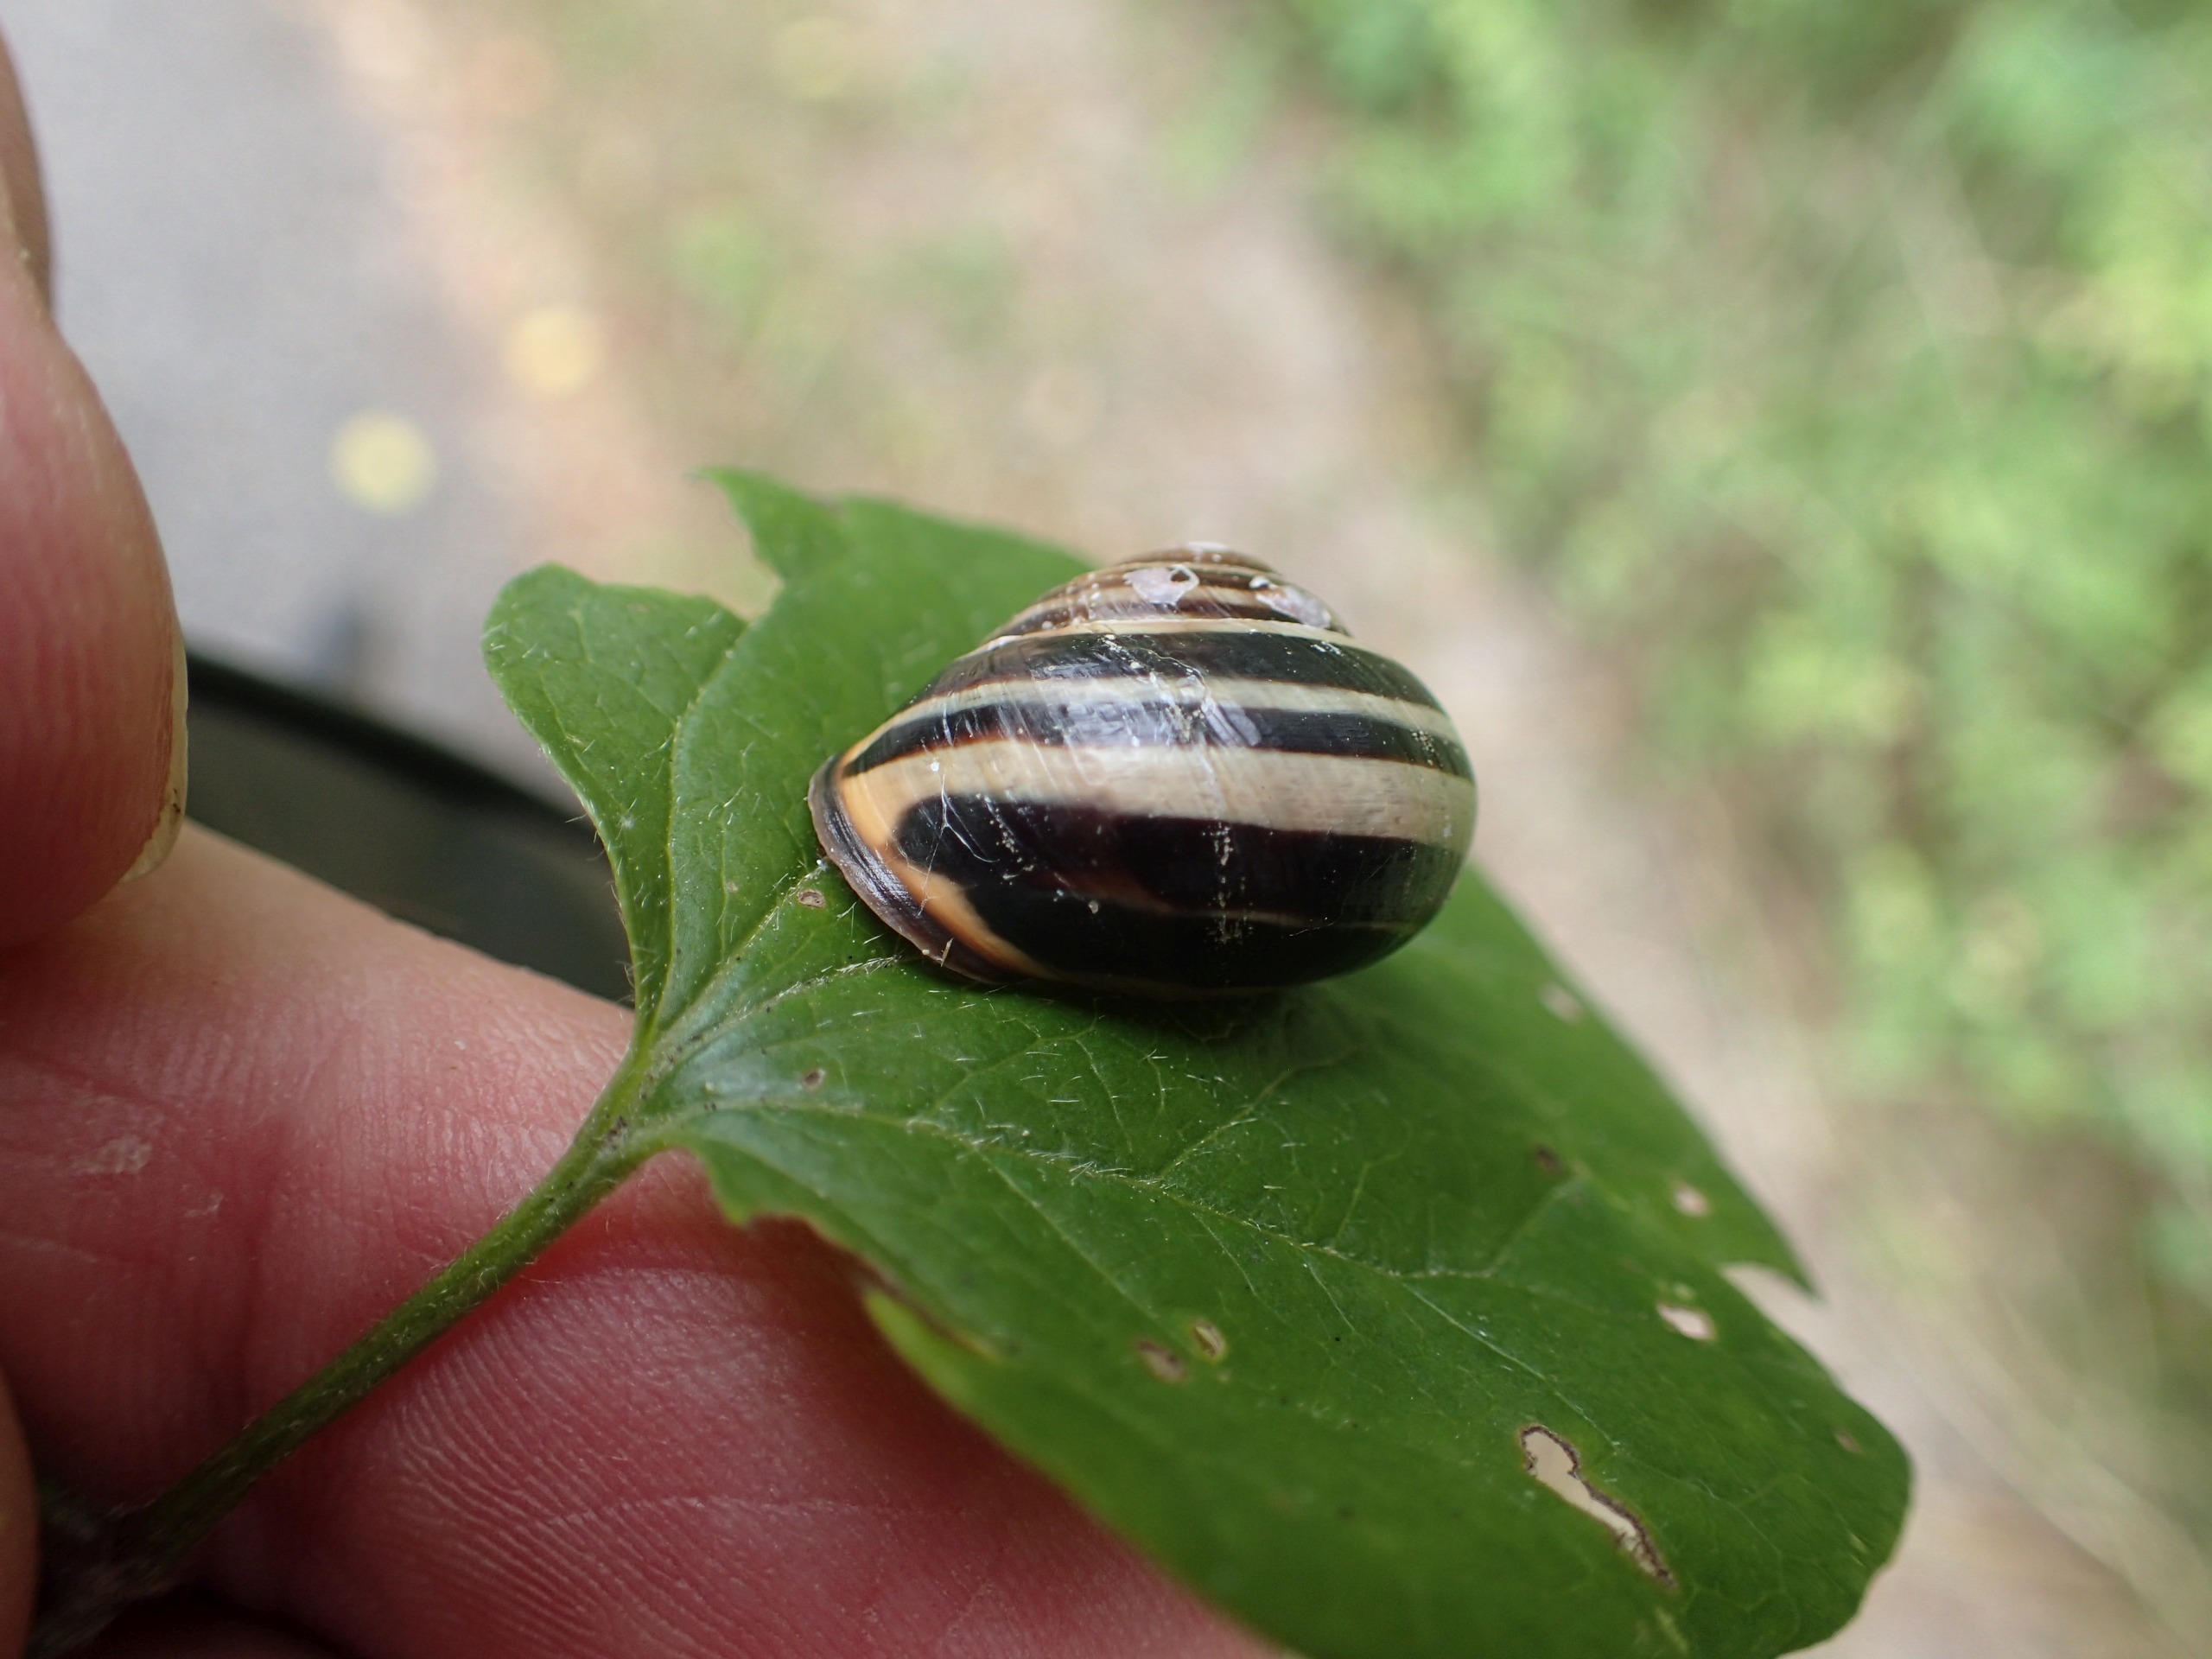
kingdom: Animalia
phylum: Mollusca
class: Gastropoda
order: Stylommatophora
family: Helicidae
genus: Cepaea
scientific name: Cepaea nemoralis
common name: Lundsnegl
